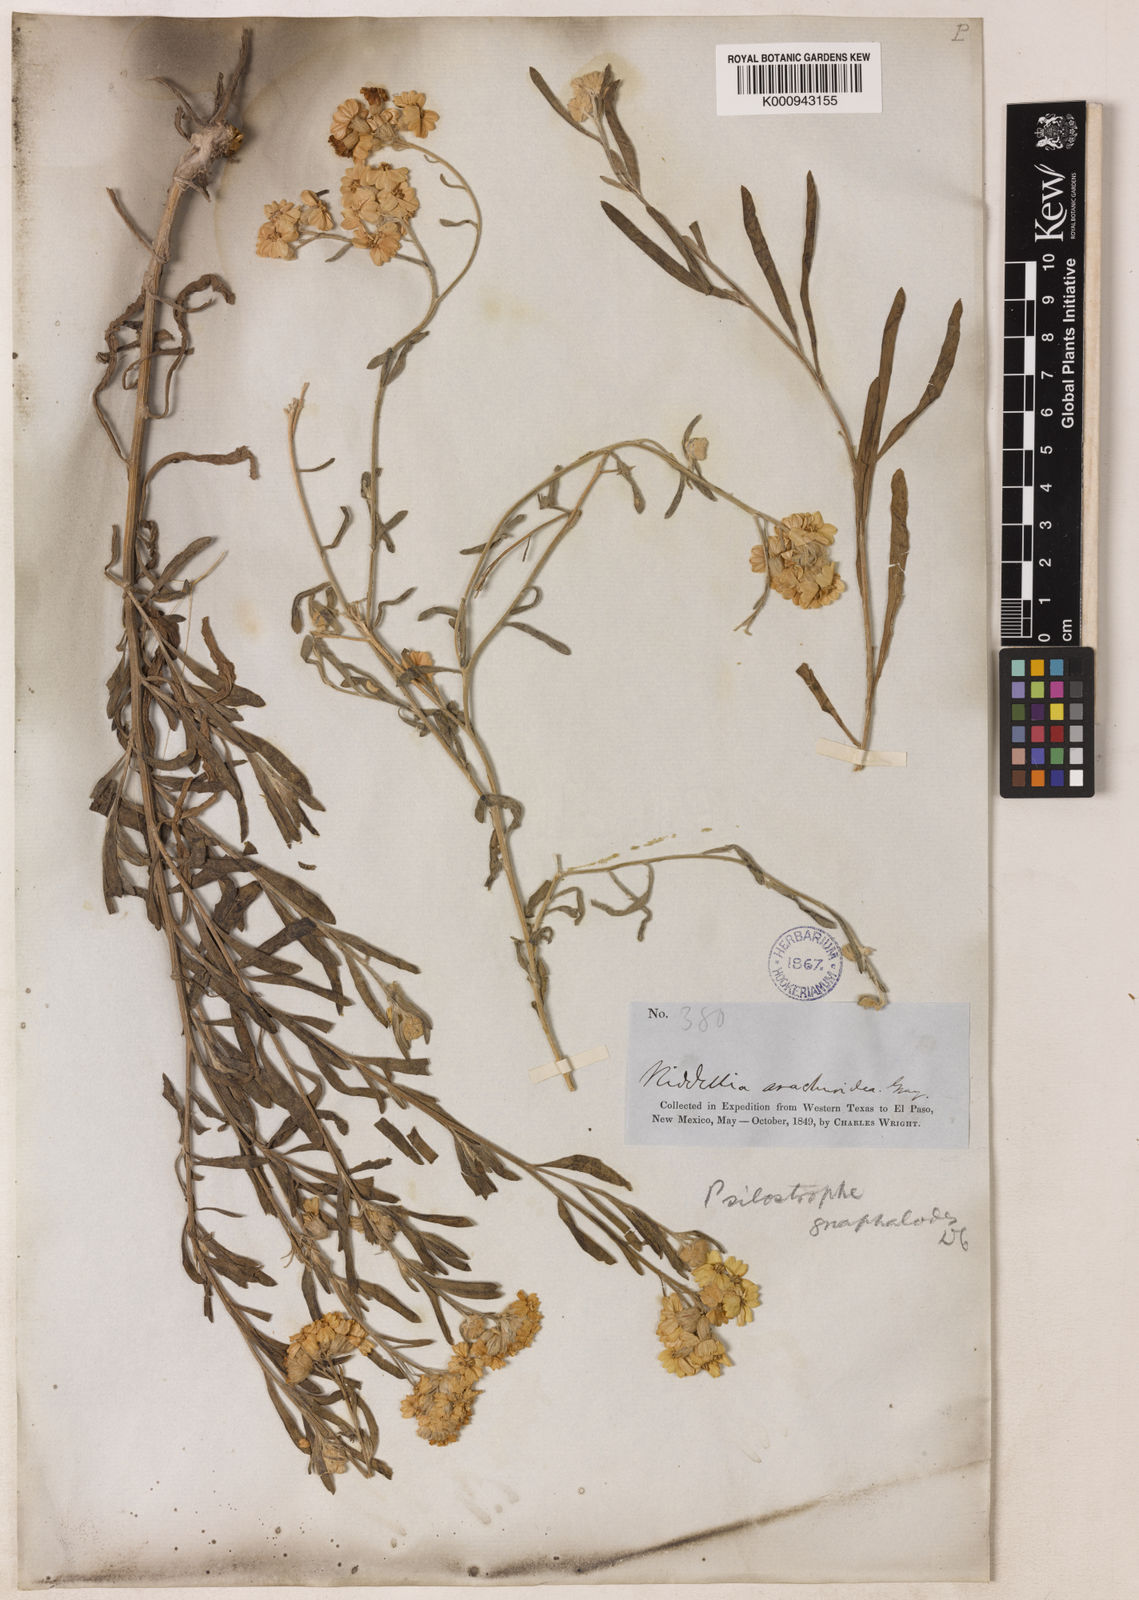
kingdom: Plantae
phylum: Tracheophyta
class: Magnoliopsida
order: Asterales
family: Asteraceae
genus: Psilostrophe
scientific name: Psilostrophe gnaphalioides
